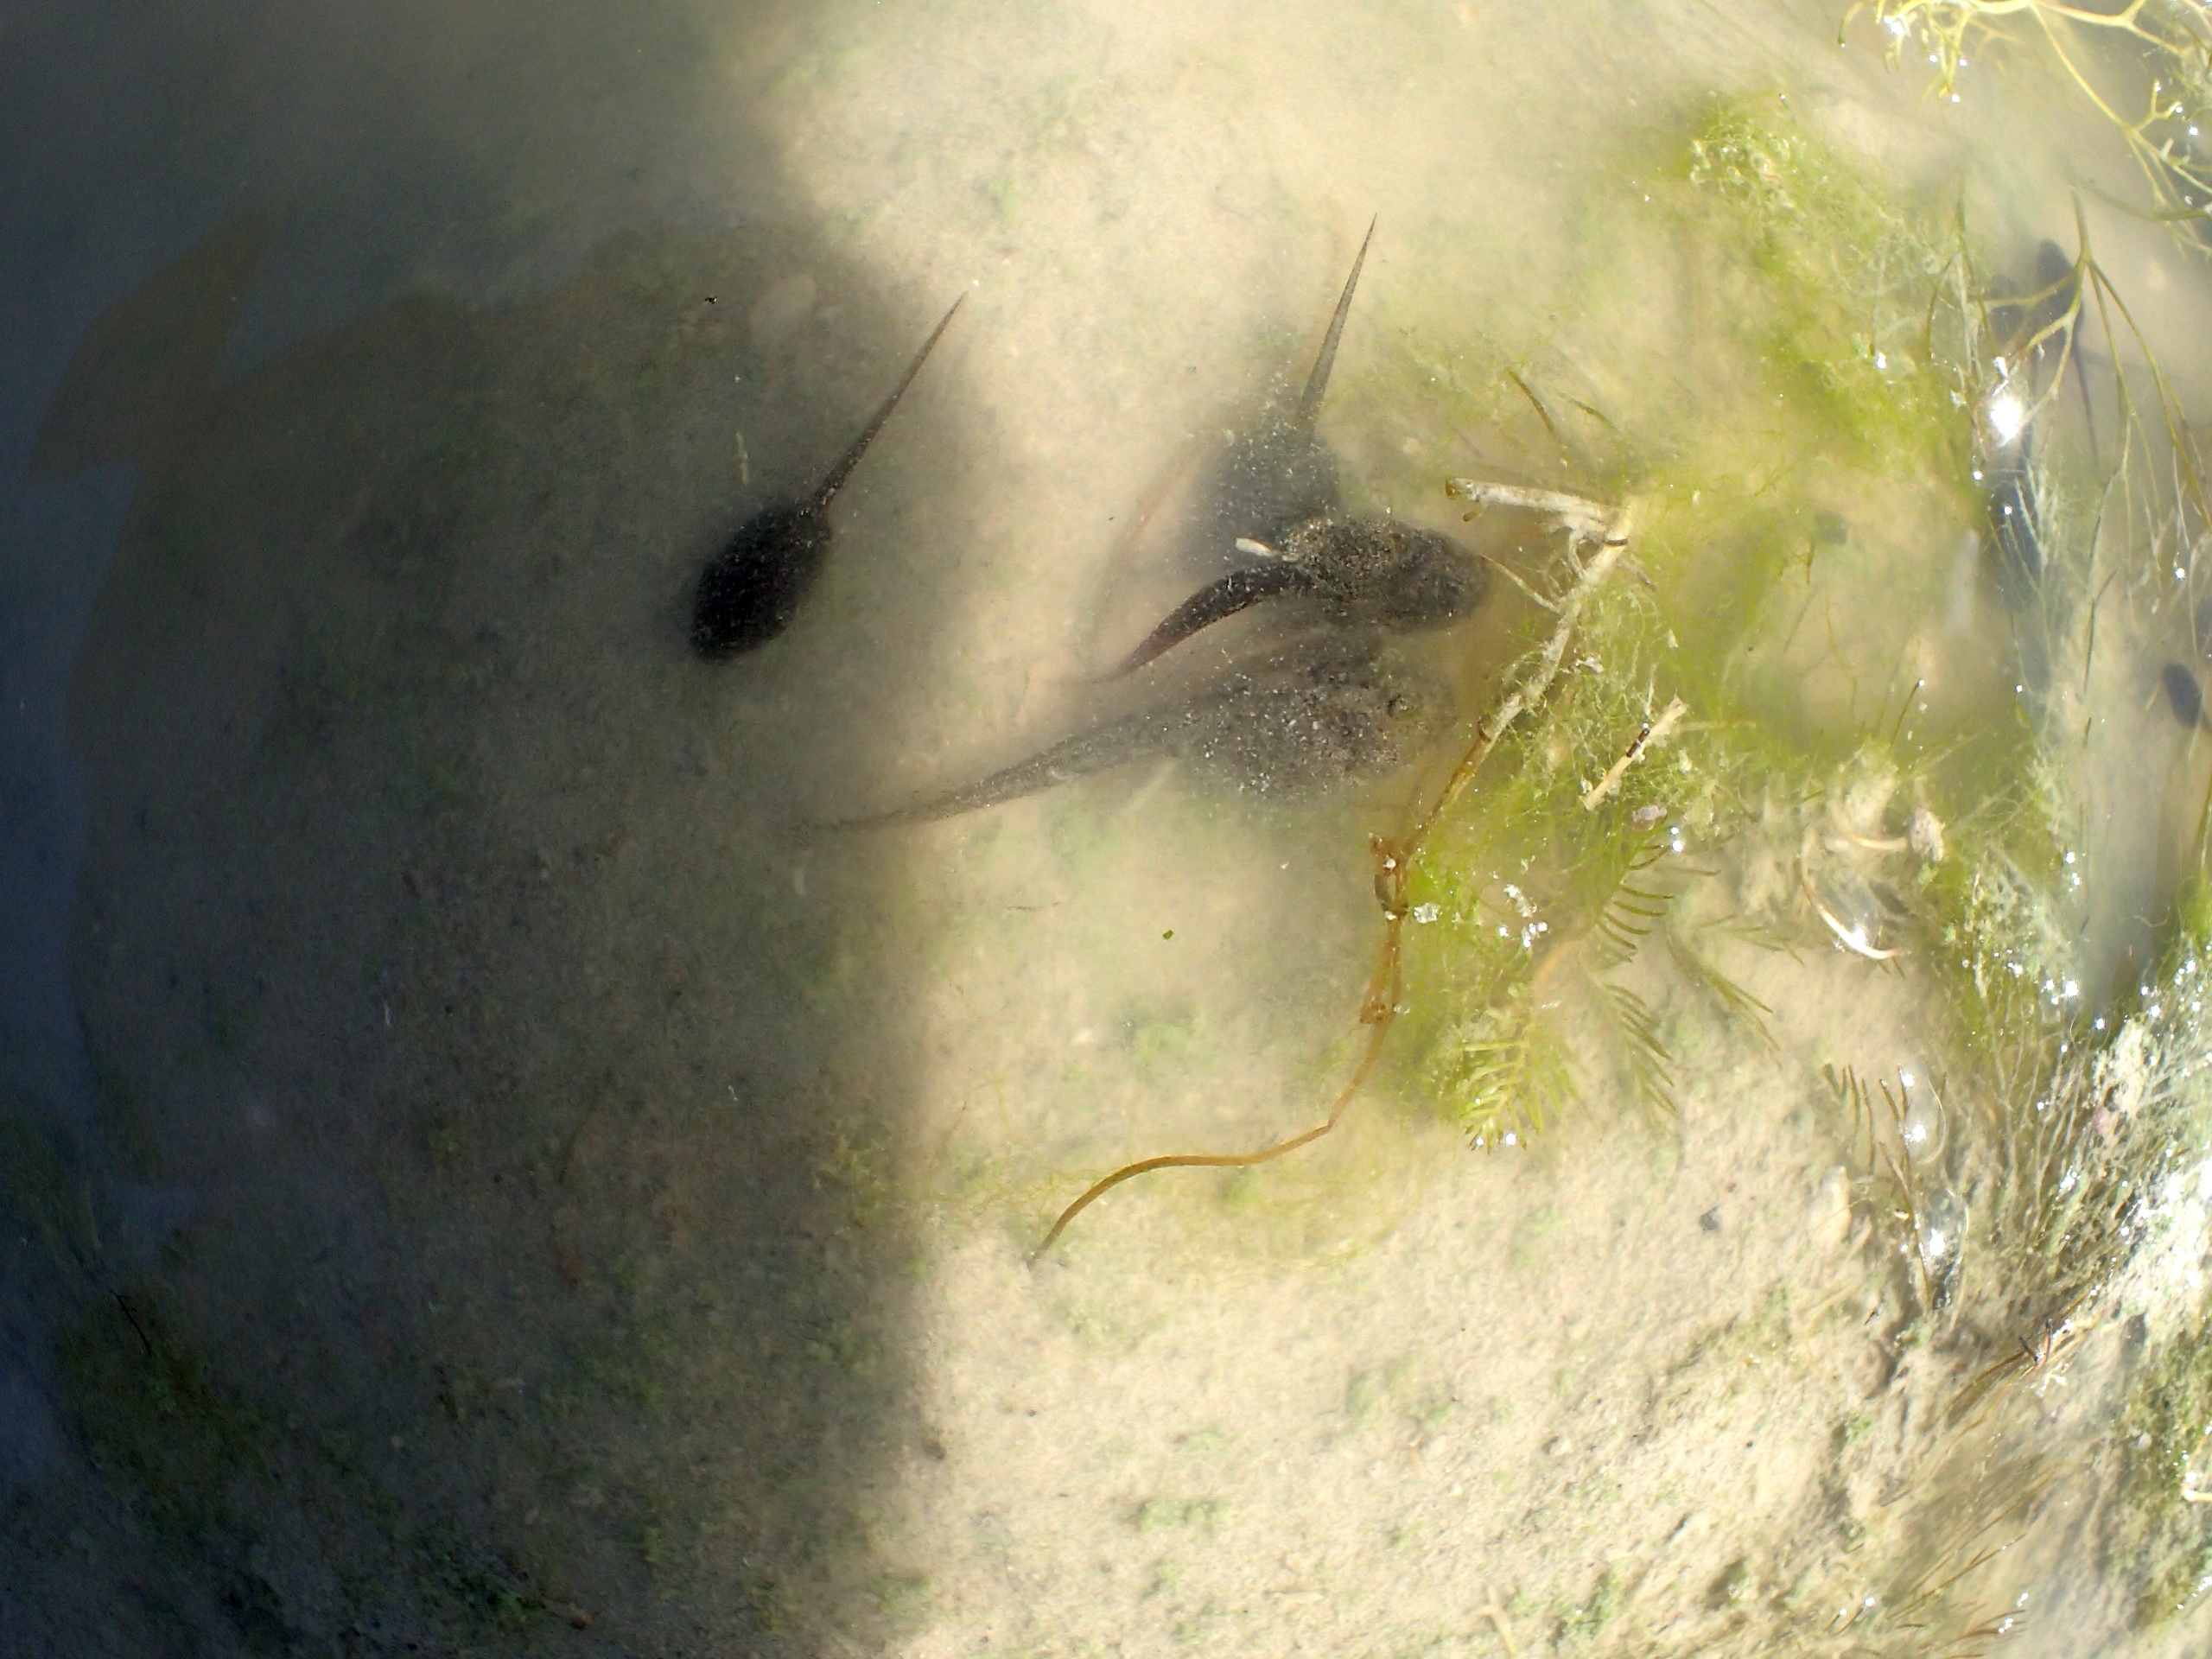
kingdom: Animalia
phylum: Chordata
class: Amphibia
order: Anura
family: Bufonidae
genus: Bufotes
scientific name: Bufotes viridis
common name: Grønbroget tudse
